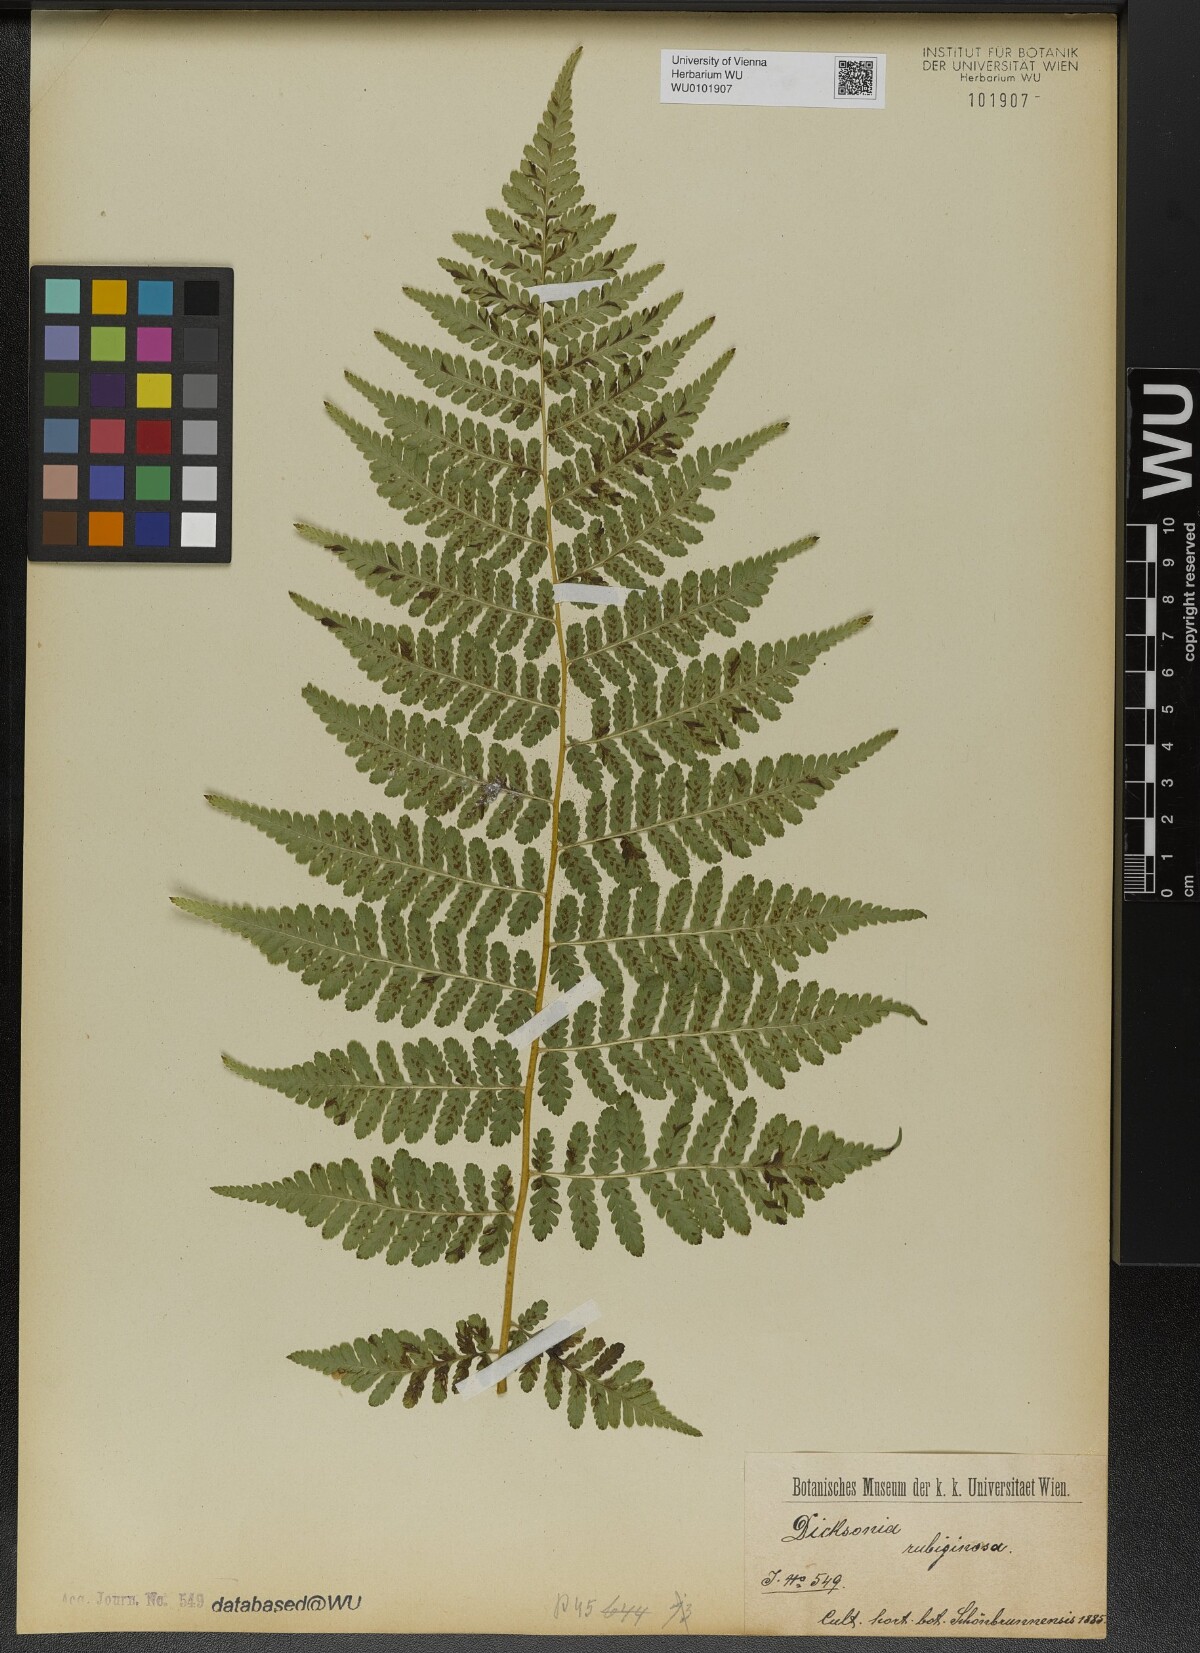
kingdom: Plantae
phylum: Tracheophyta
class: Polypodiopsida
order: Polypodiales
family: Dennstaedtiaceae
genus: Dennstaedtia
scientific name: Dennstaedtia cicutaria
